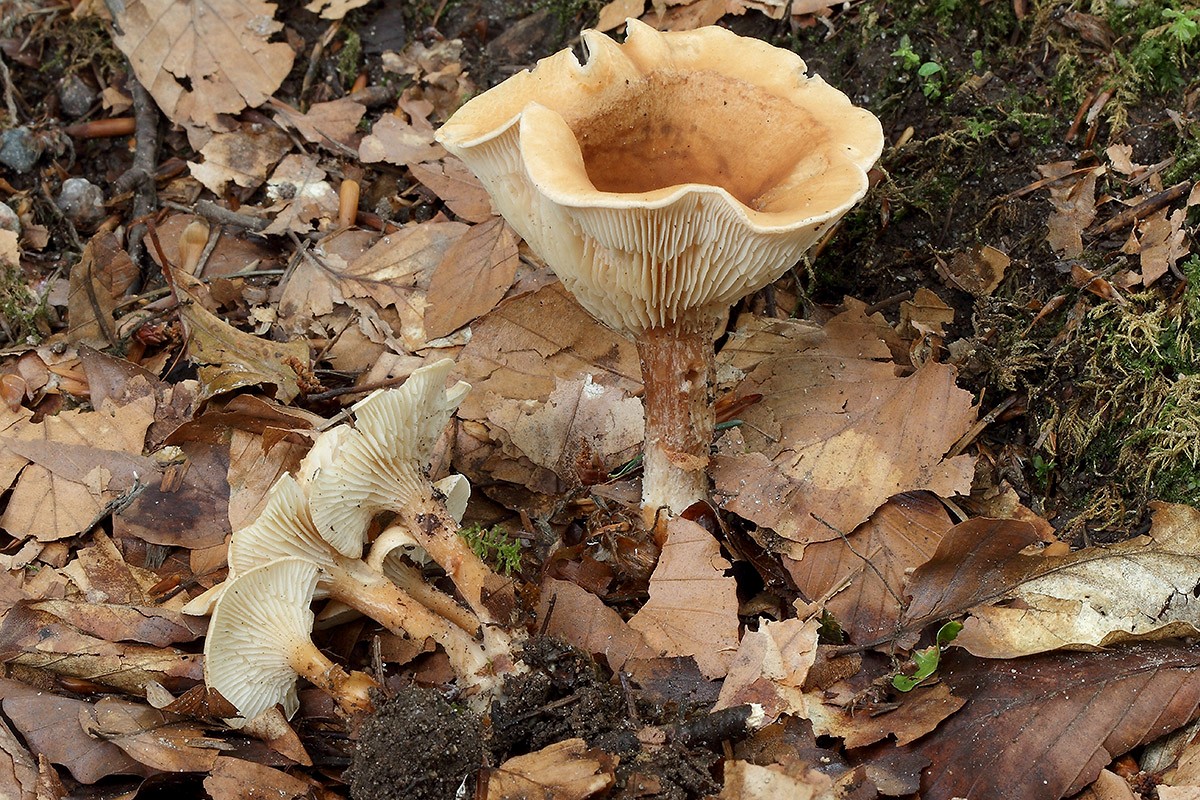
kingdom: Fungi
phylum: Basidiomycota
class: Agaricomycetes
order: Agaricales
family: Tricholomataceae
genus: Clitocybe
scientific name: Clitocybe costata
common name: brunstokket tragthat
